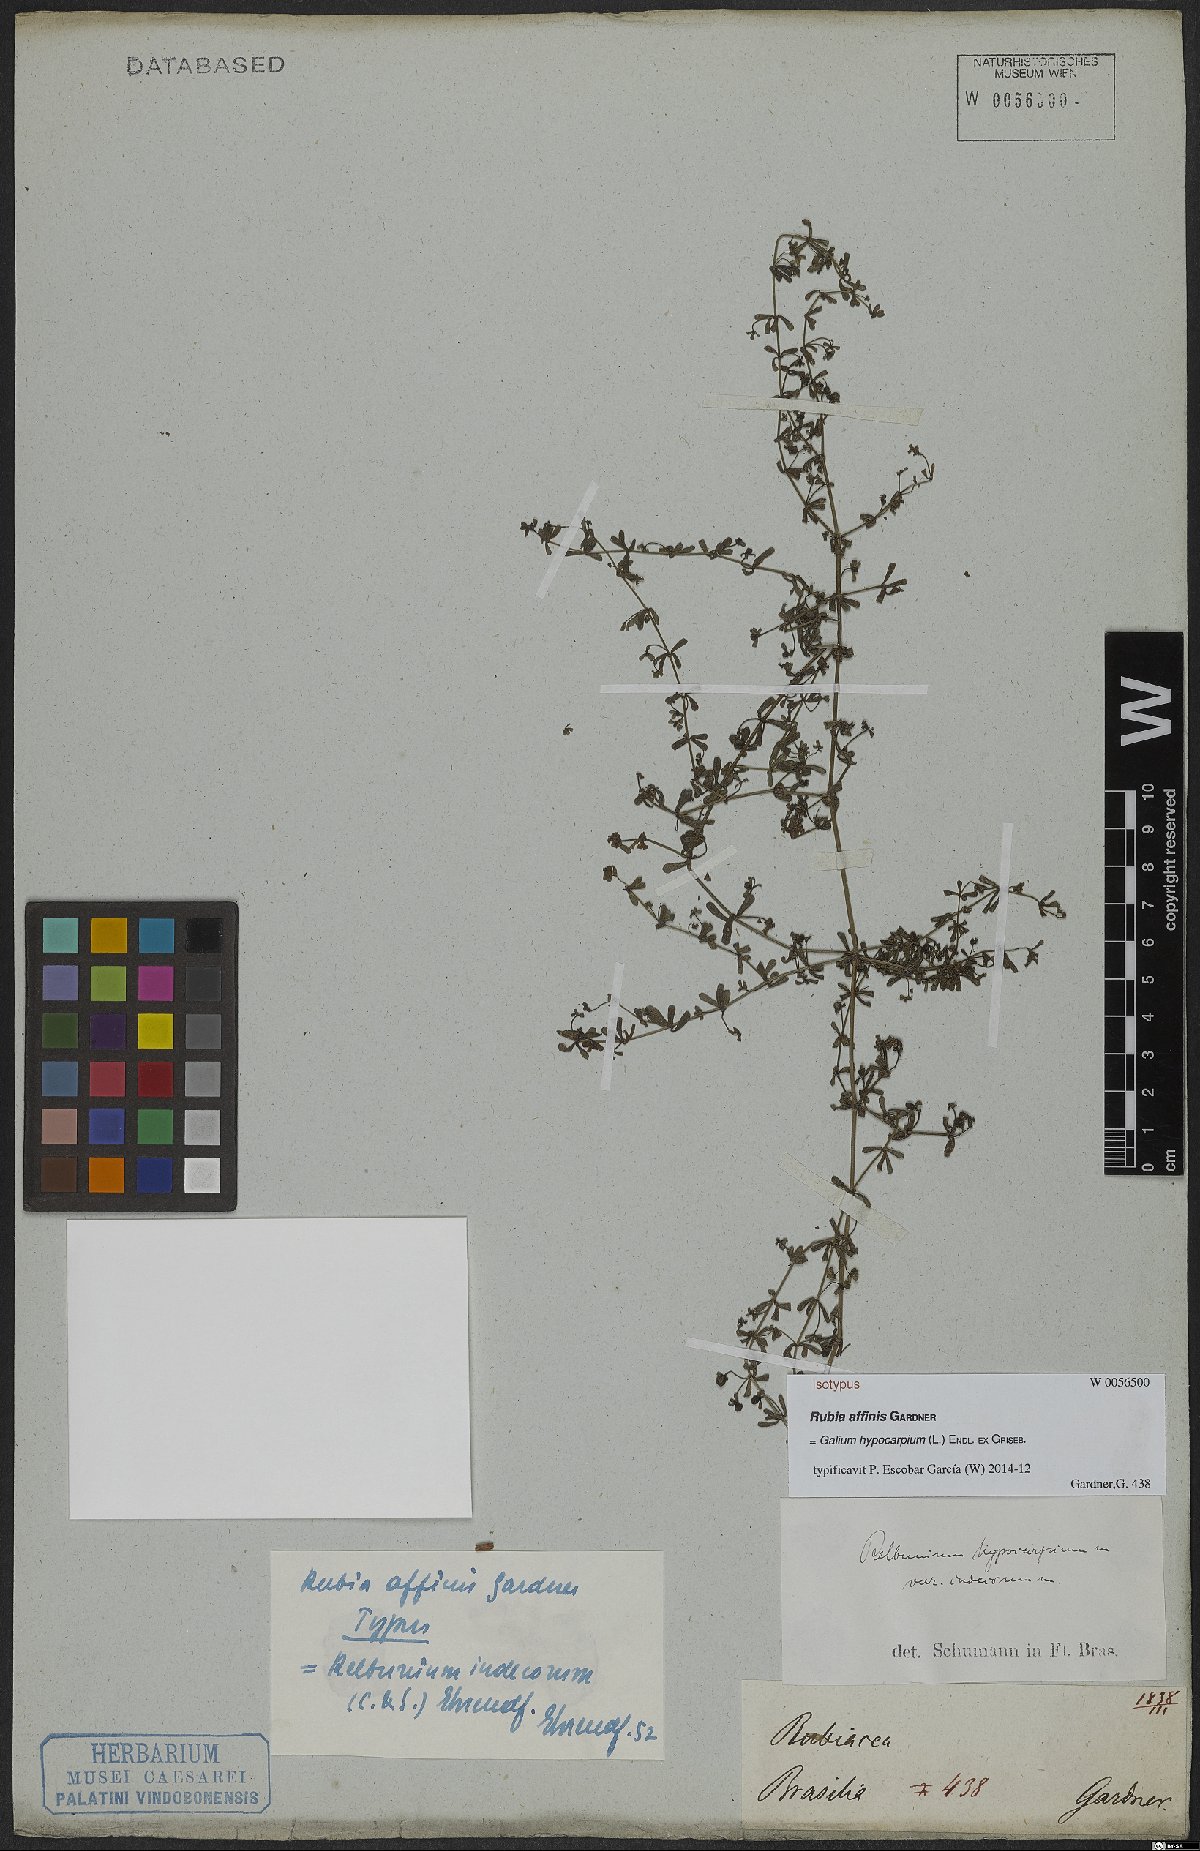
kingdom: Plantae
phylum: Tracheophyta
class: Magnoliopsida
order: Gentianales
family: Rubiaceae
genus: Galium
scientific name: Galium hypocarpium
